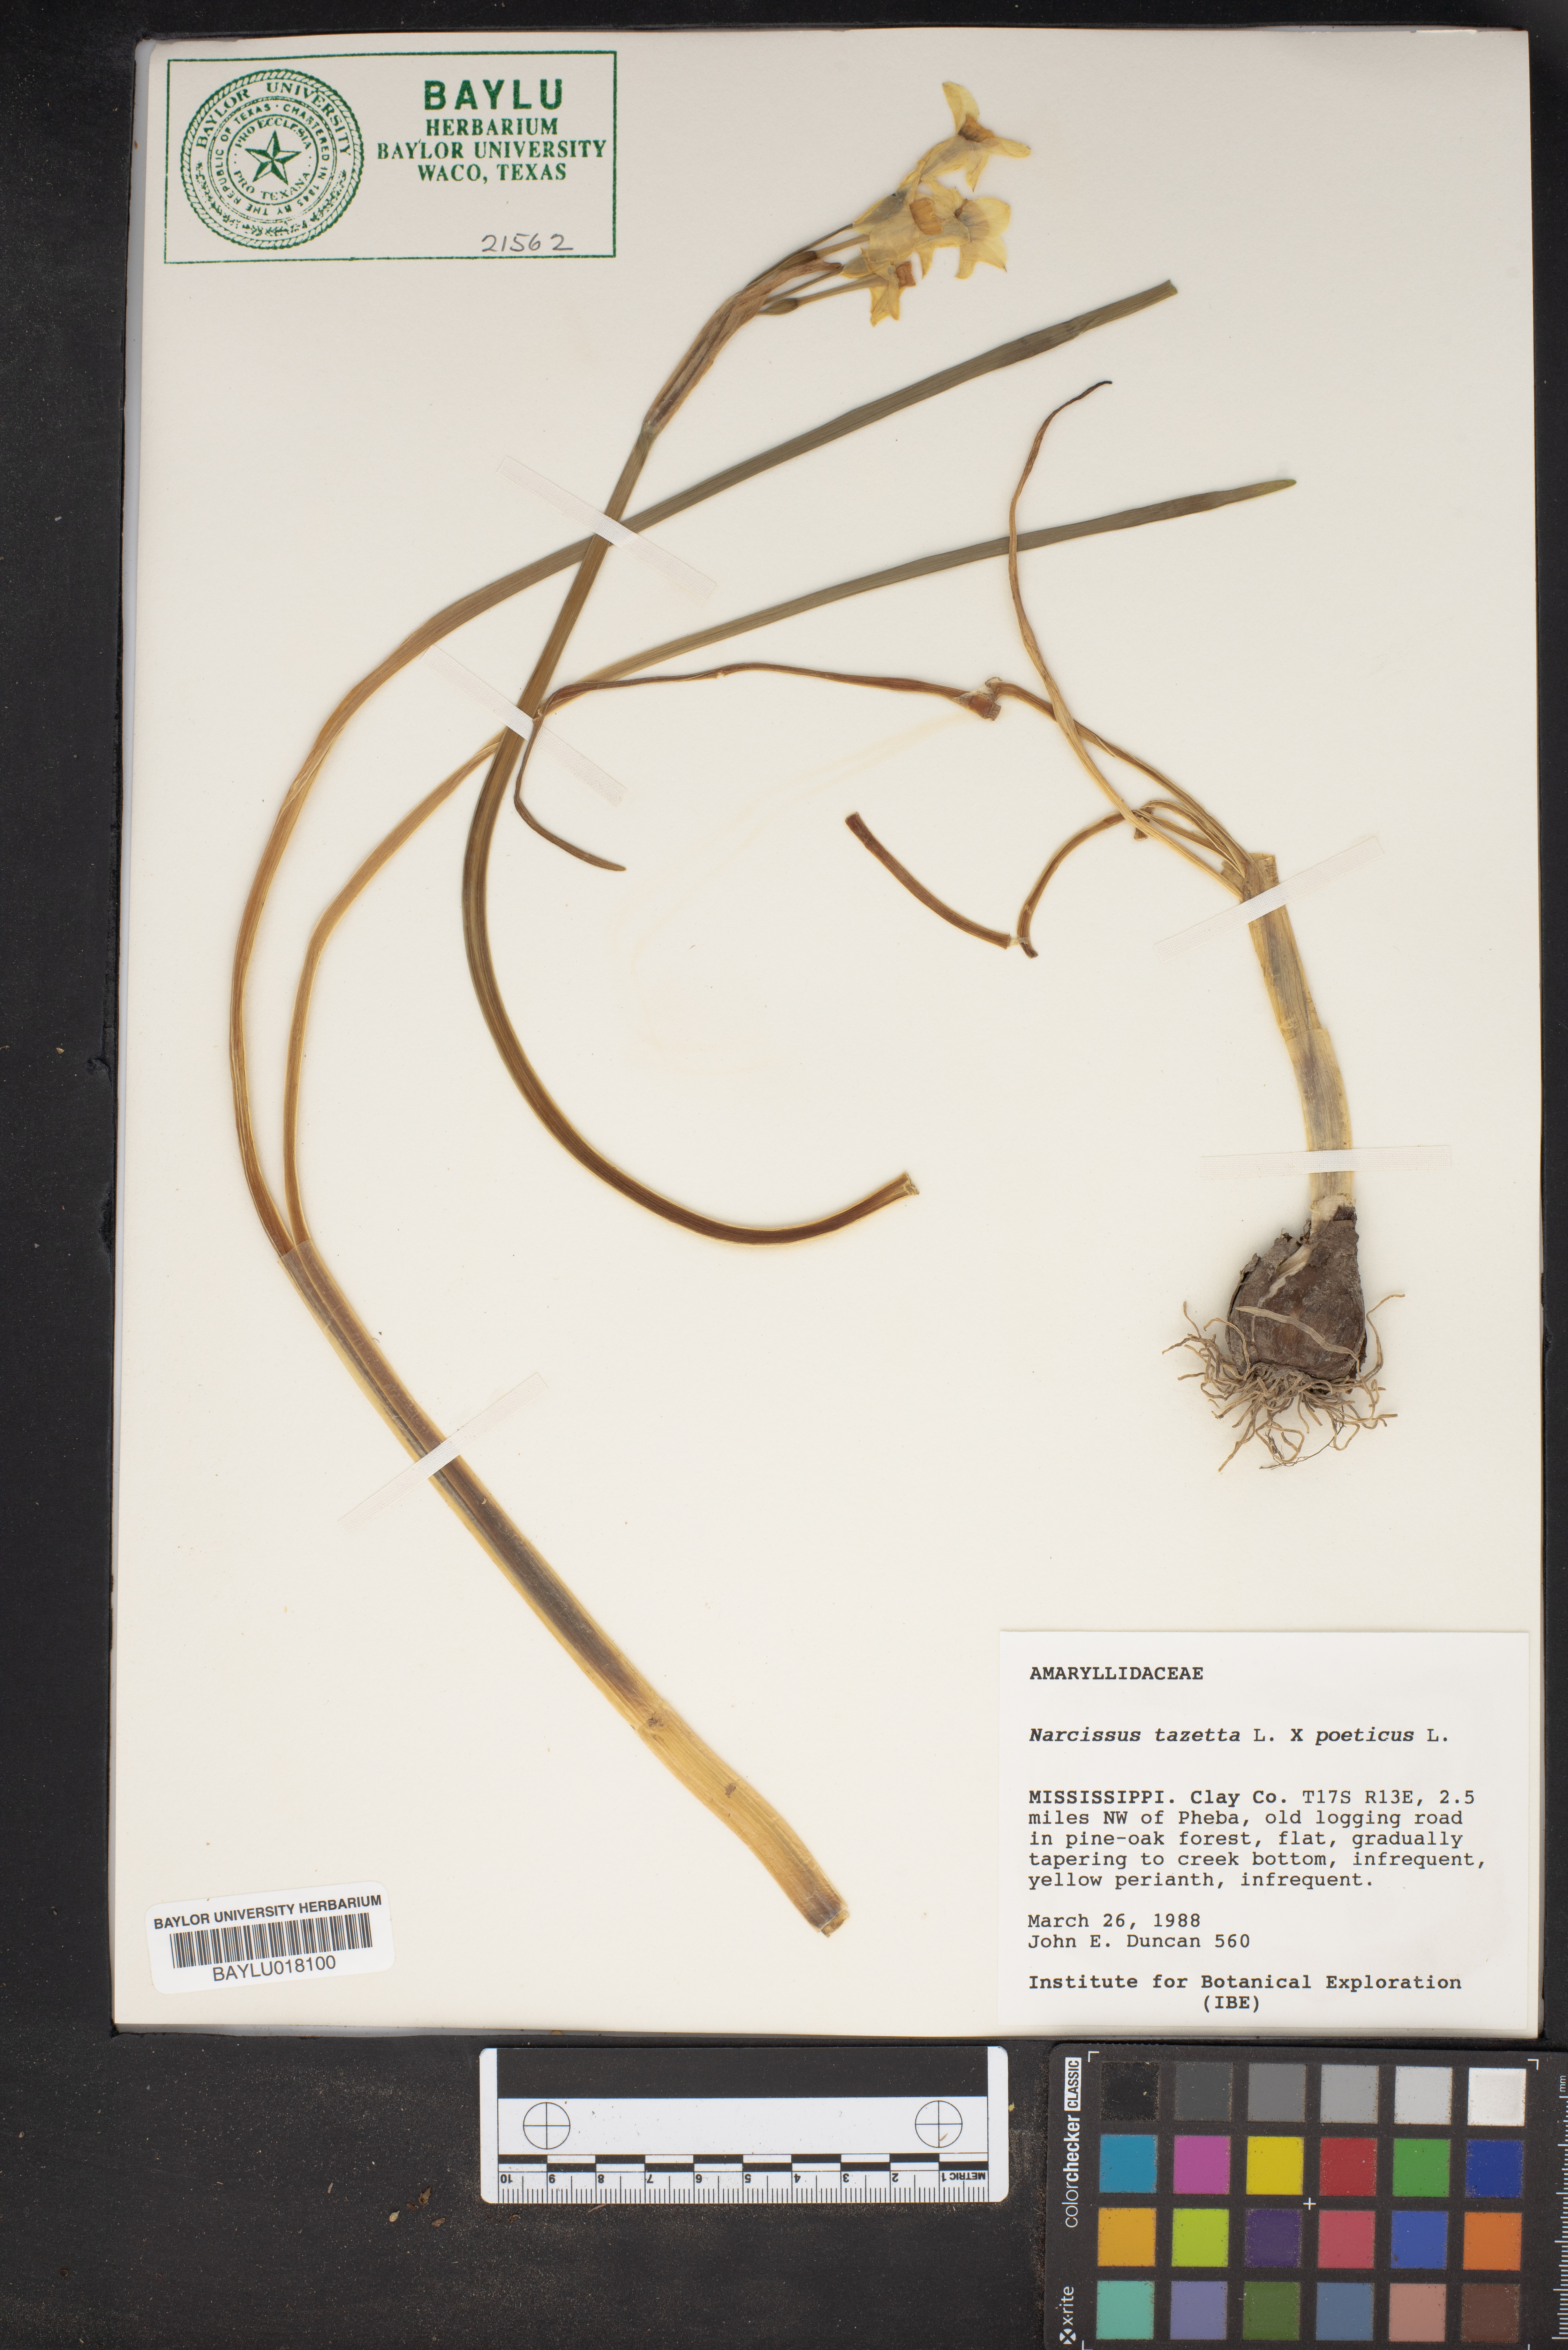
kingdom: Plantae
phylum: Tracheophyta
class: Liliopsida
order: Asparagales
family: Amaryllidaceae
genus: Narcissus
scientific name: Narcissus medioluteus
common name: Primrose-peerless
